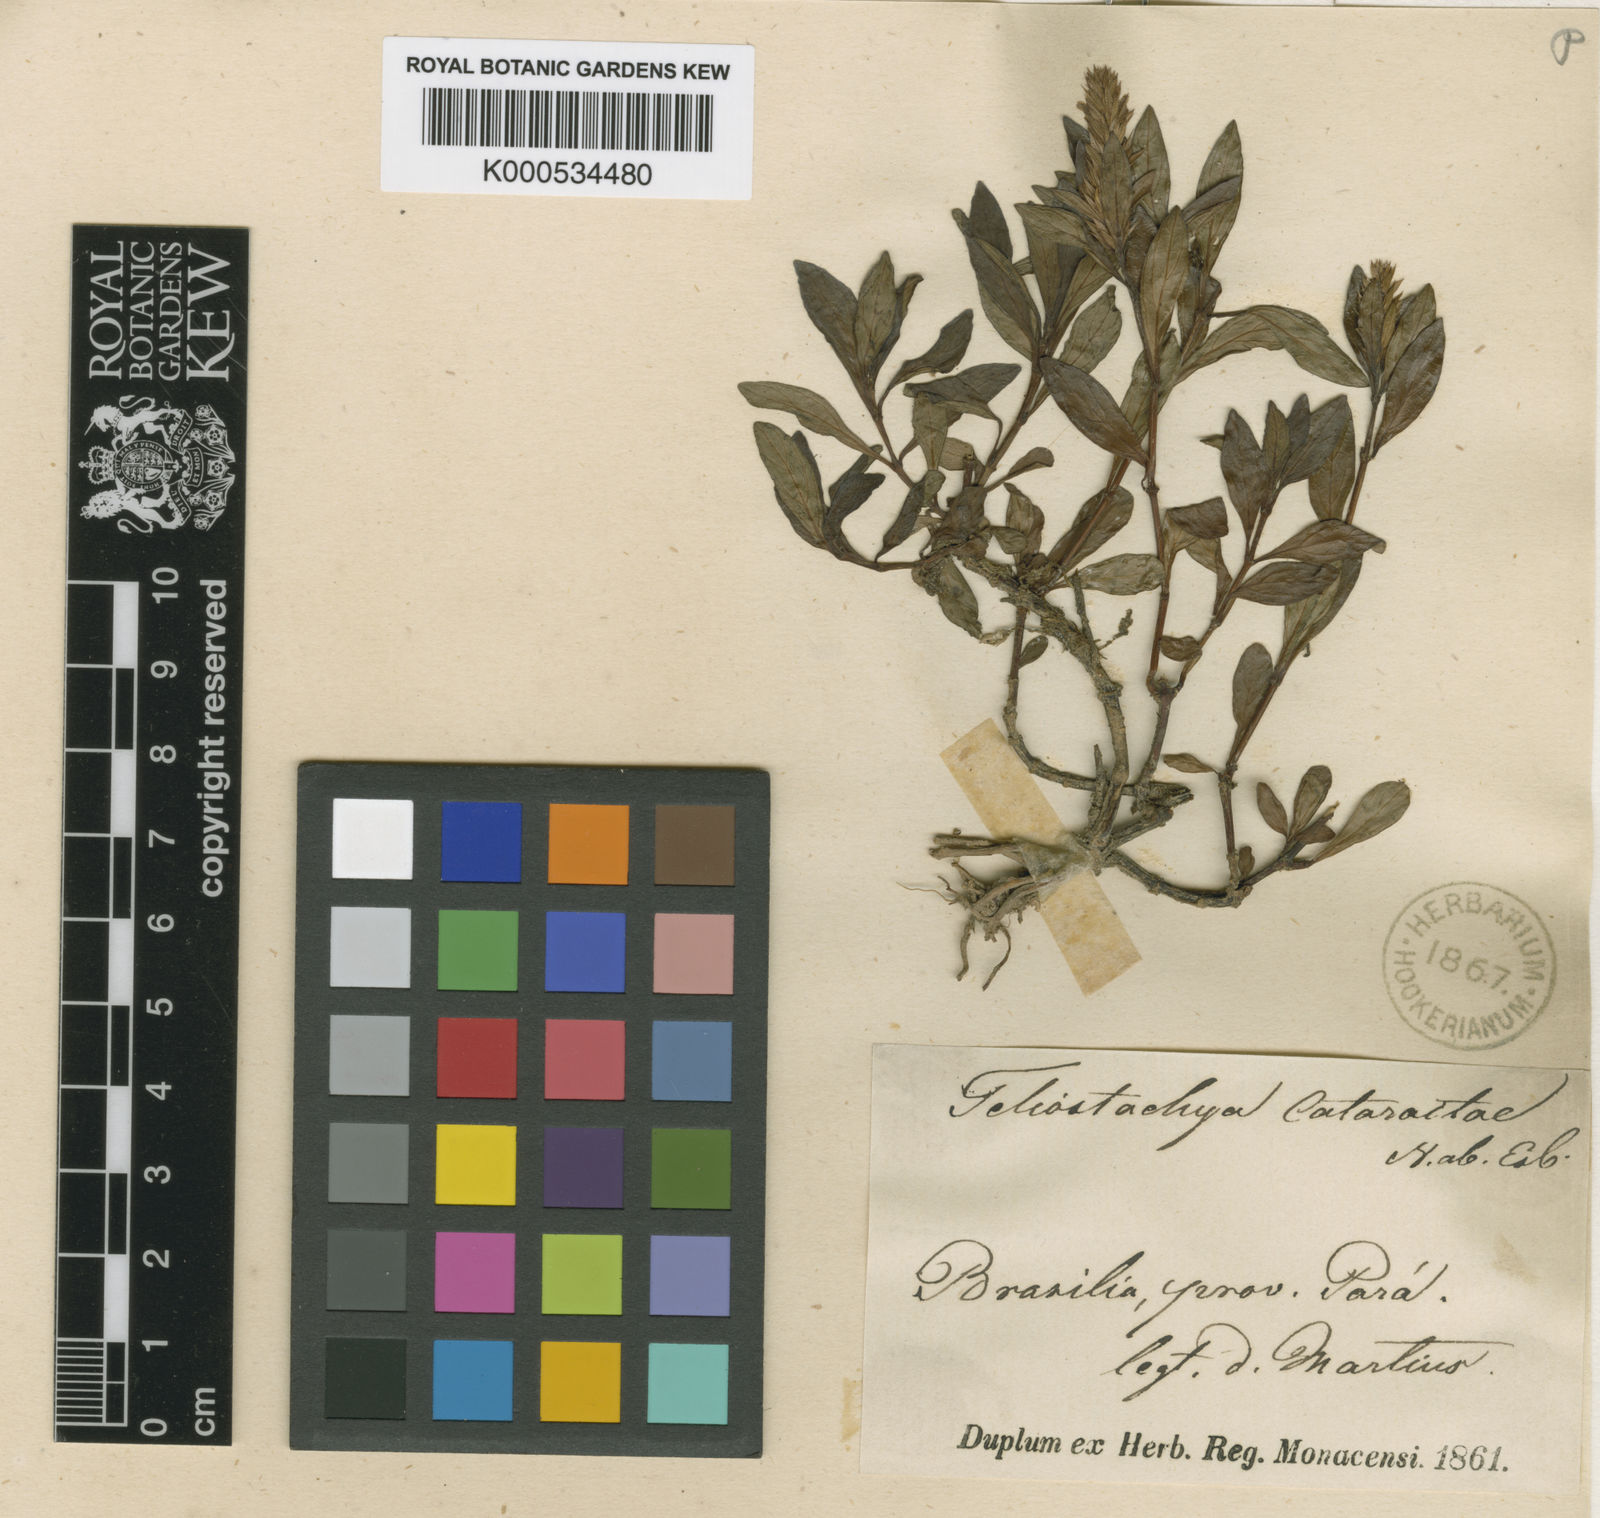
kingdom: Plantae
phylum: Tracheophyta
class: Magnoliopsida
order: Lamiales
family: Acanthaceae
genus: Lepidagathis
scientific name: Lepidagathis
